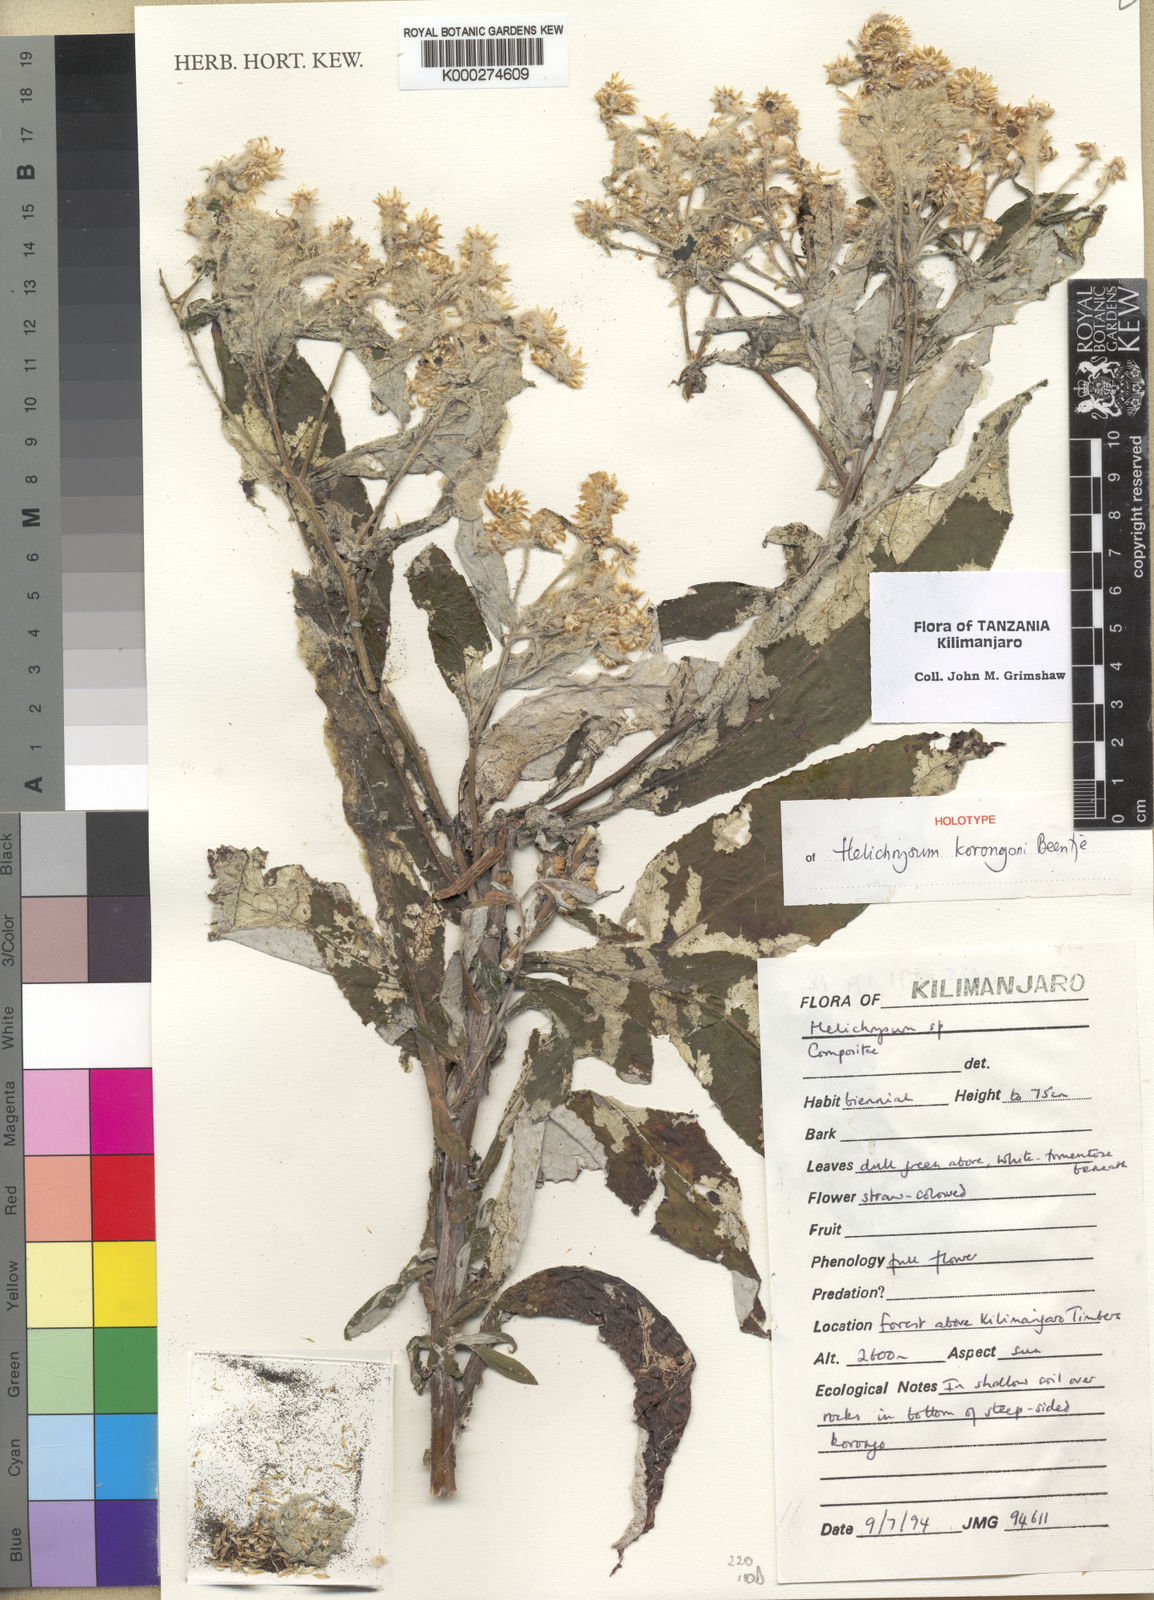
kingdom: Plantae
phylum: Tracheophyta
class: Magnoliopsida
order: Asterales
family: Asteraceae
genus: Helichrysum
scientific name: Helichrysum korongoni
